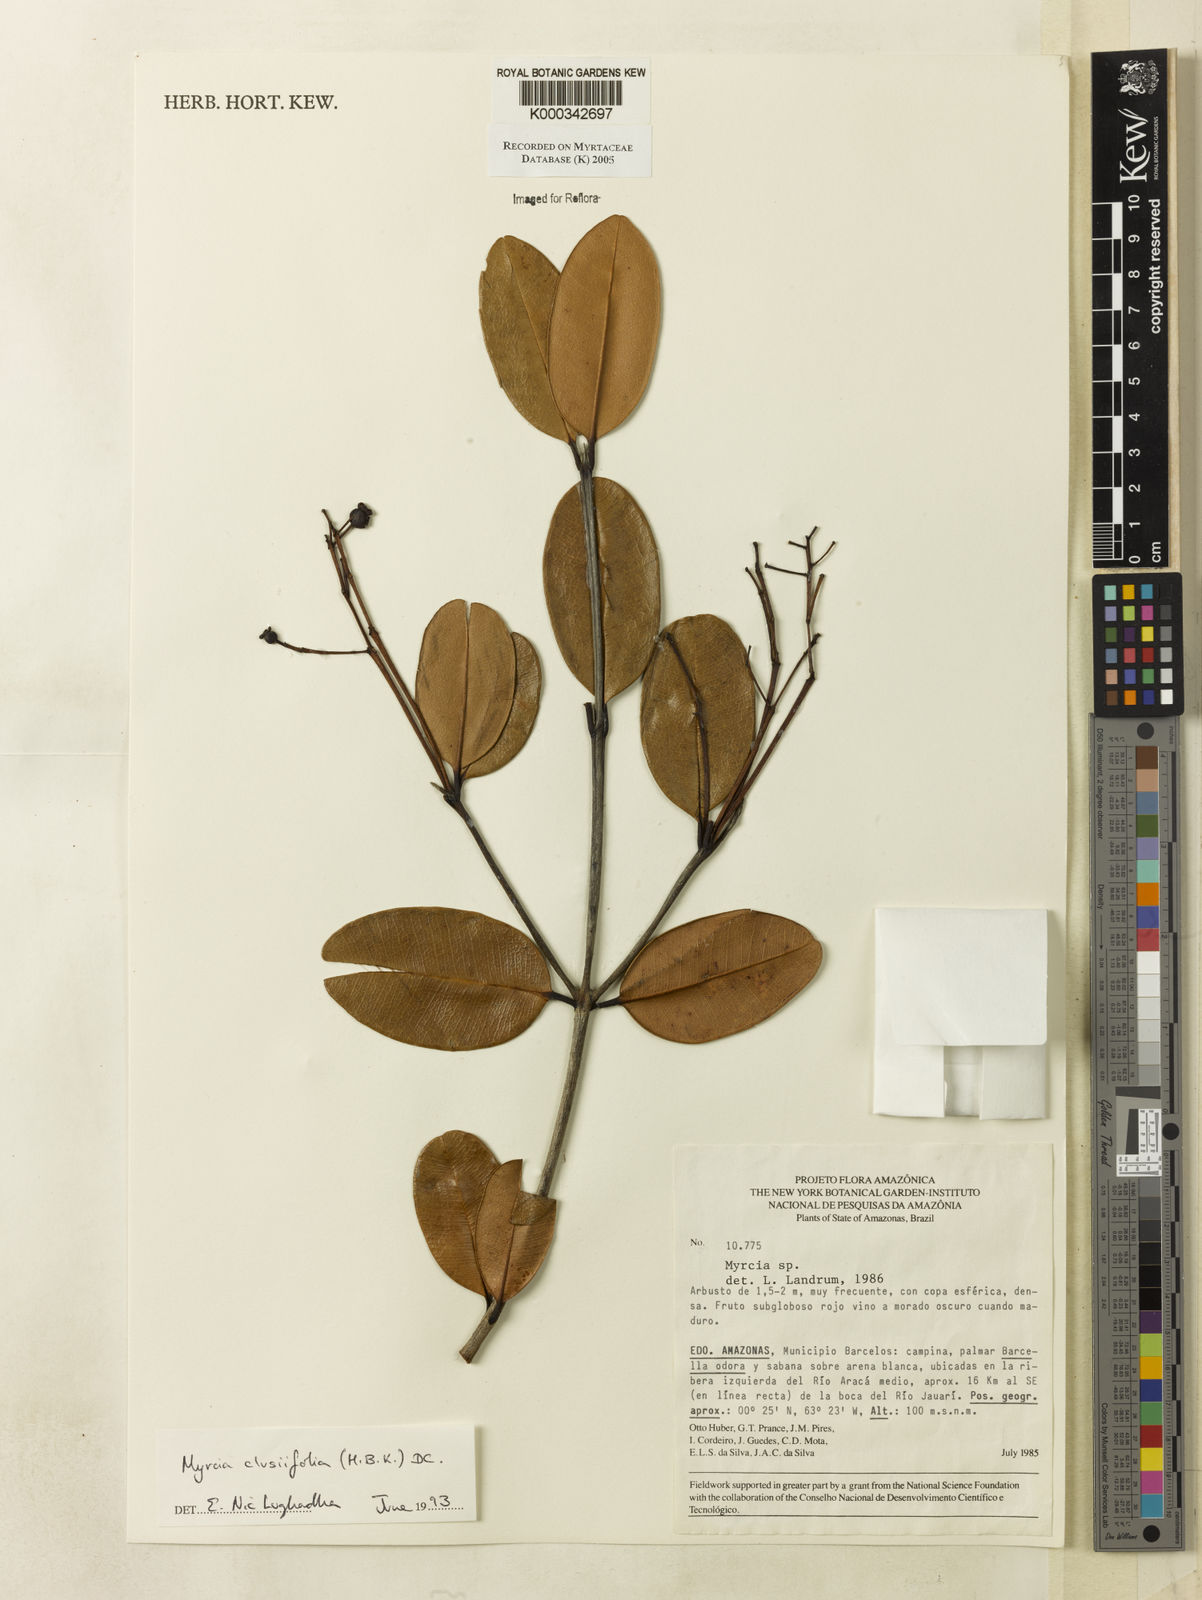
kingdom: Plantae
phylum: Tracheophyta
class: Magnoliopsida
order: Myrtales
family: Myrtaceae
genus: Myrcia
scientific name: Myrcia clusiifolia
